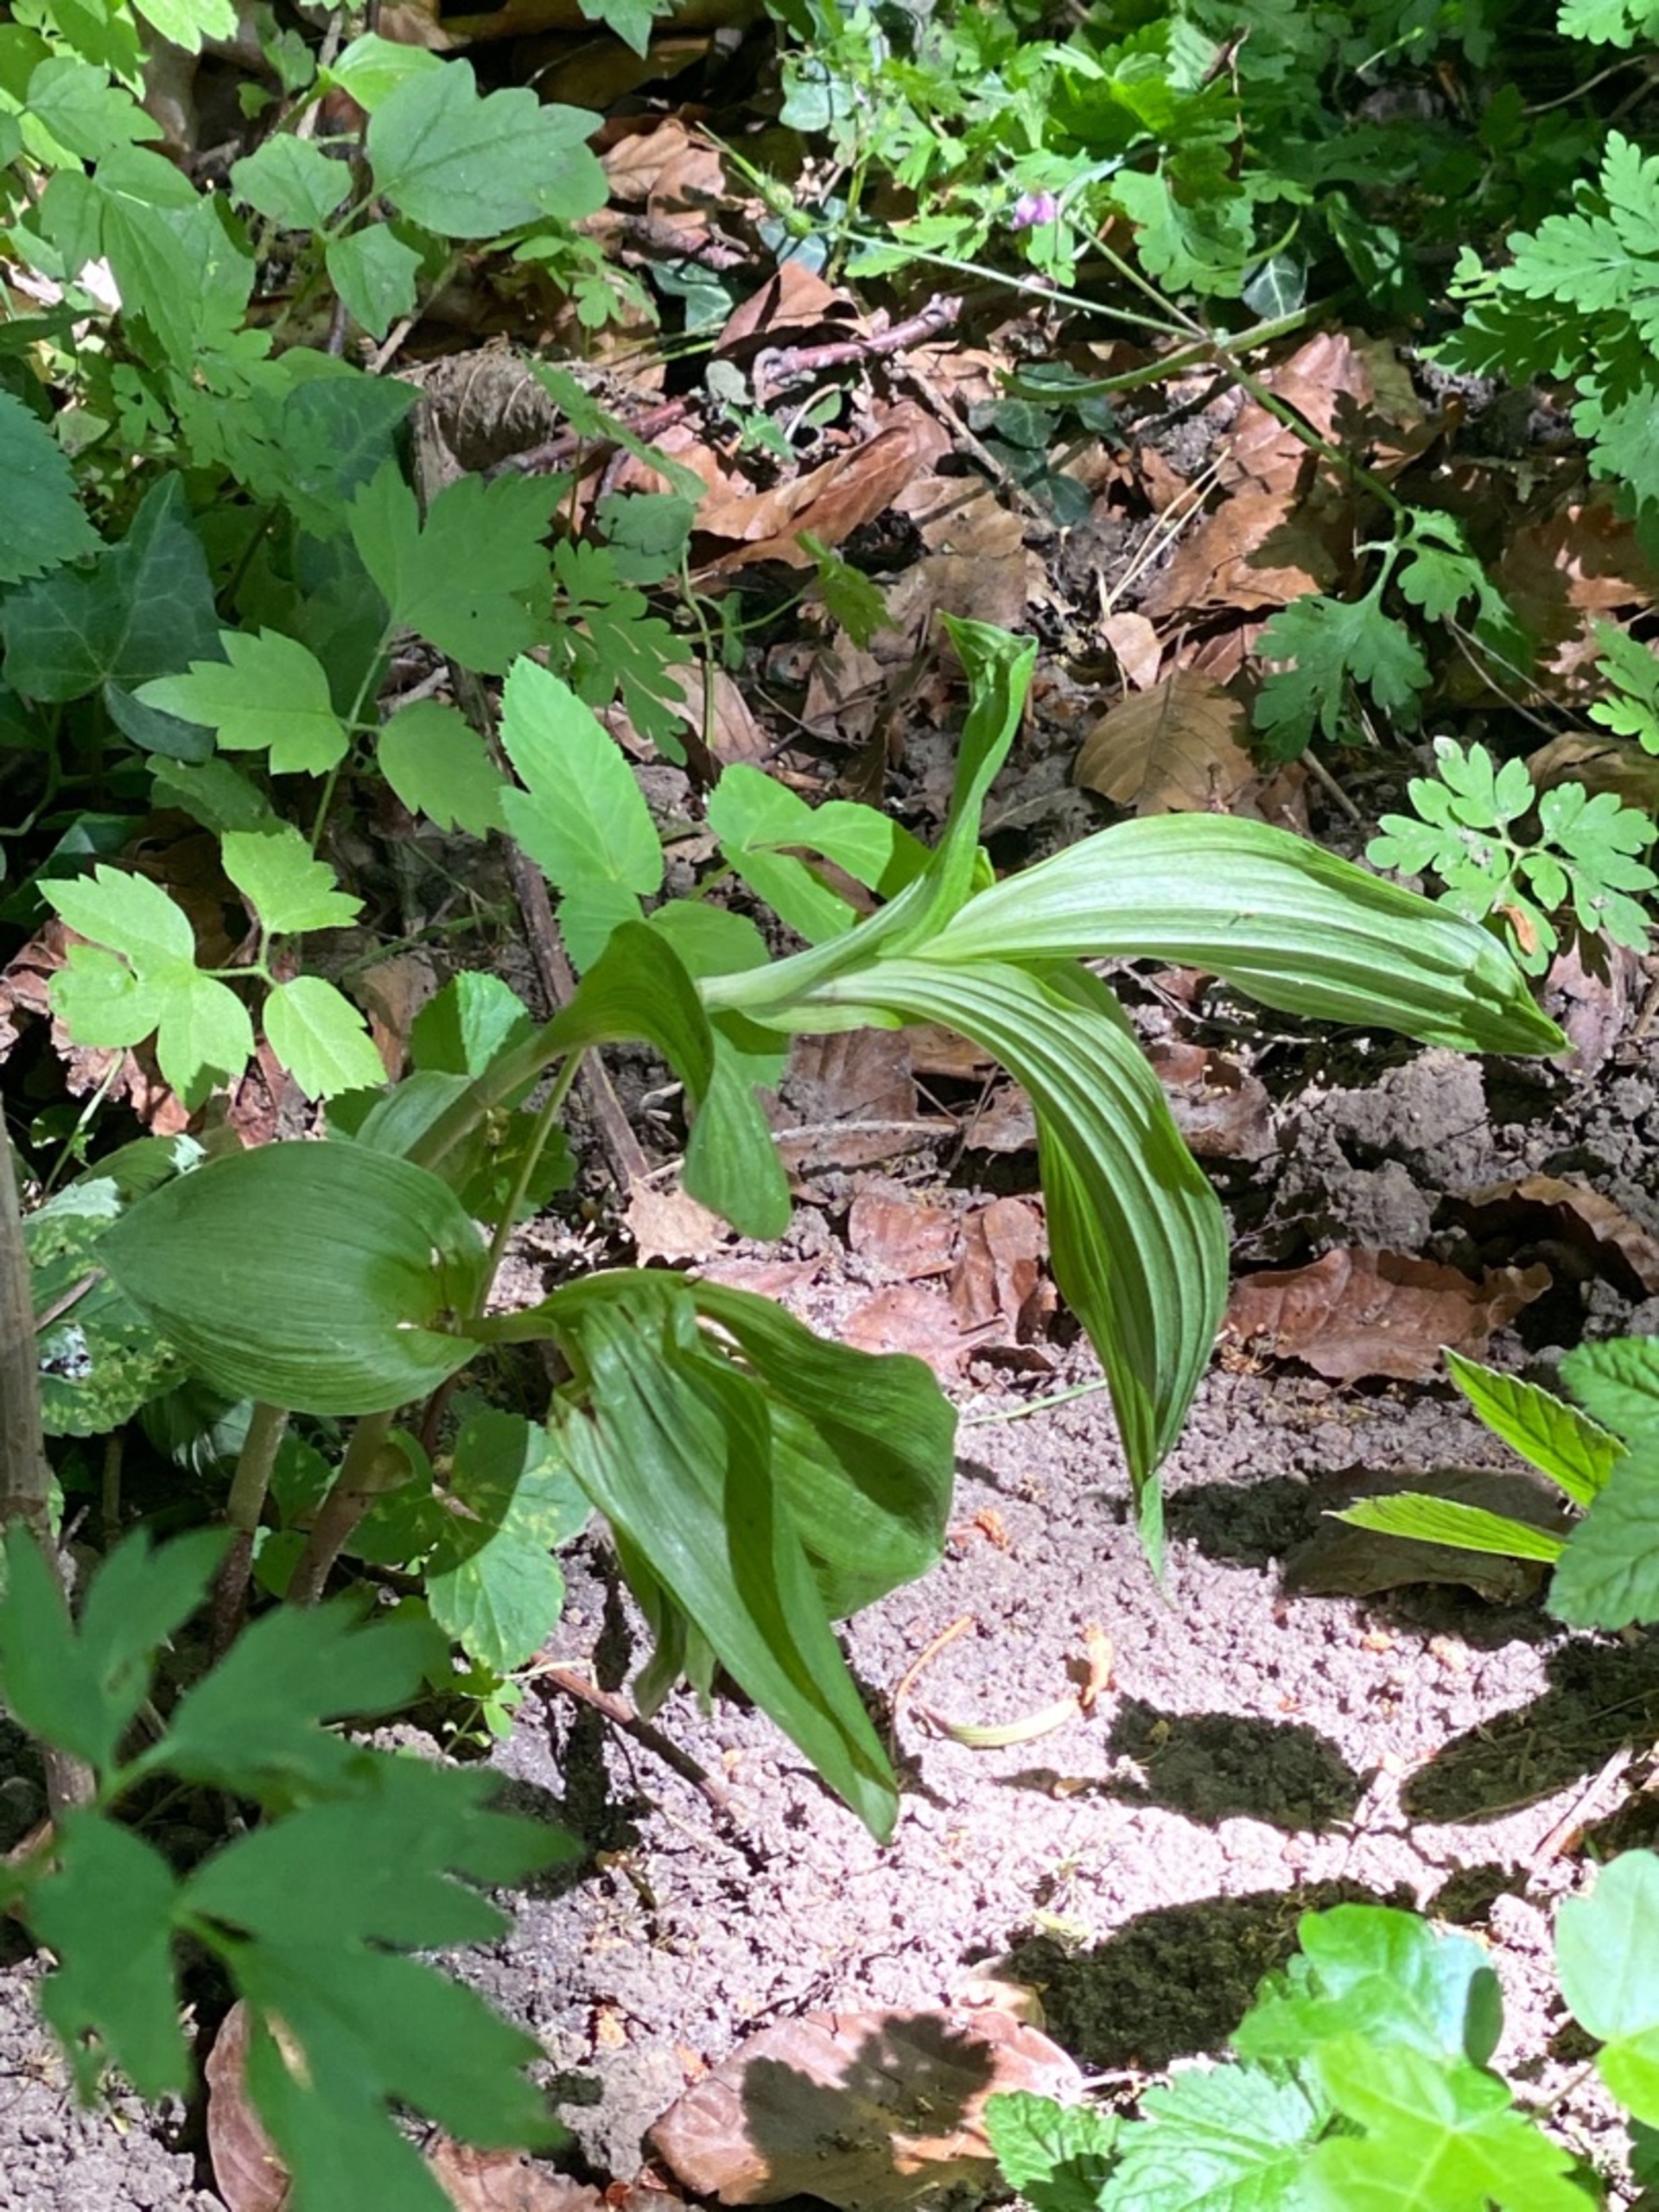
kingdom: Plantae
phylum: Tracheophyta
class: Liliopsida
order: Asparagales
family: Orchidaceae
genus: Epipactis
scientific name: Epipactis helleborine
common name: Skov-hullæbe
